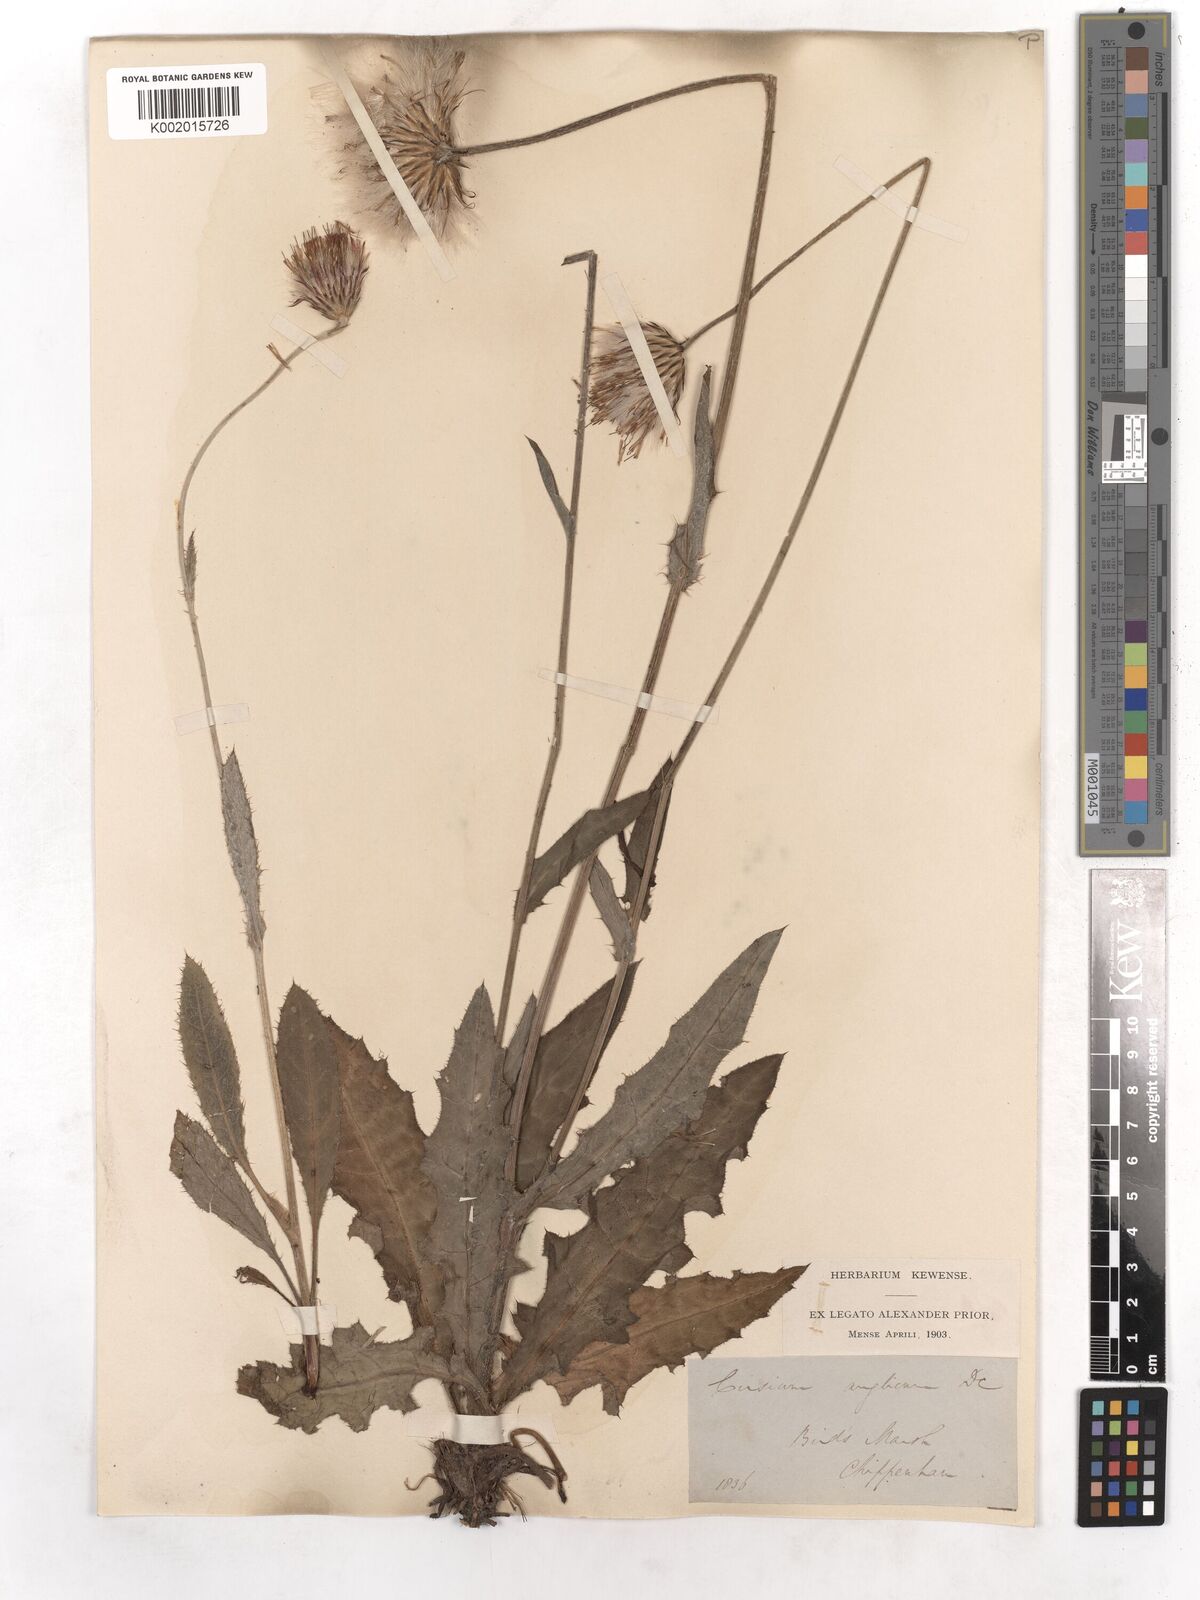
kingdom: Plantae
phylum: Tracheophyta
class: Magnoliopsida
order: Asterales
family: Asteraceae
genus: Cirsium
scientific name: Cirsium dissectum
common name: Meadow thistle
